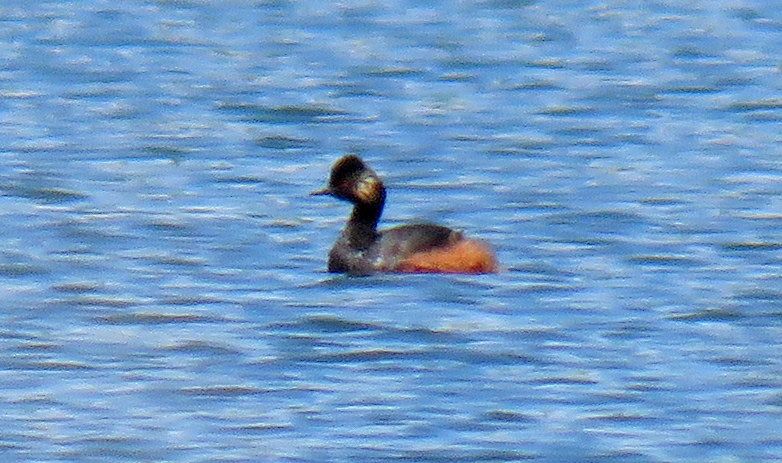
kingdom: Animalia
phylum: Chordata
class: Aves
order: Podicipediformes
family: Podicipedidae
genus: Podiceps
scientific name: Podiceps nigricollis
